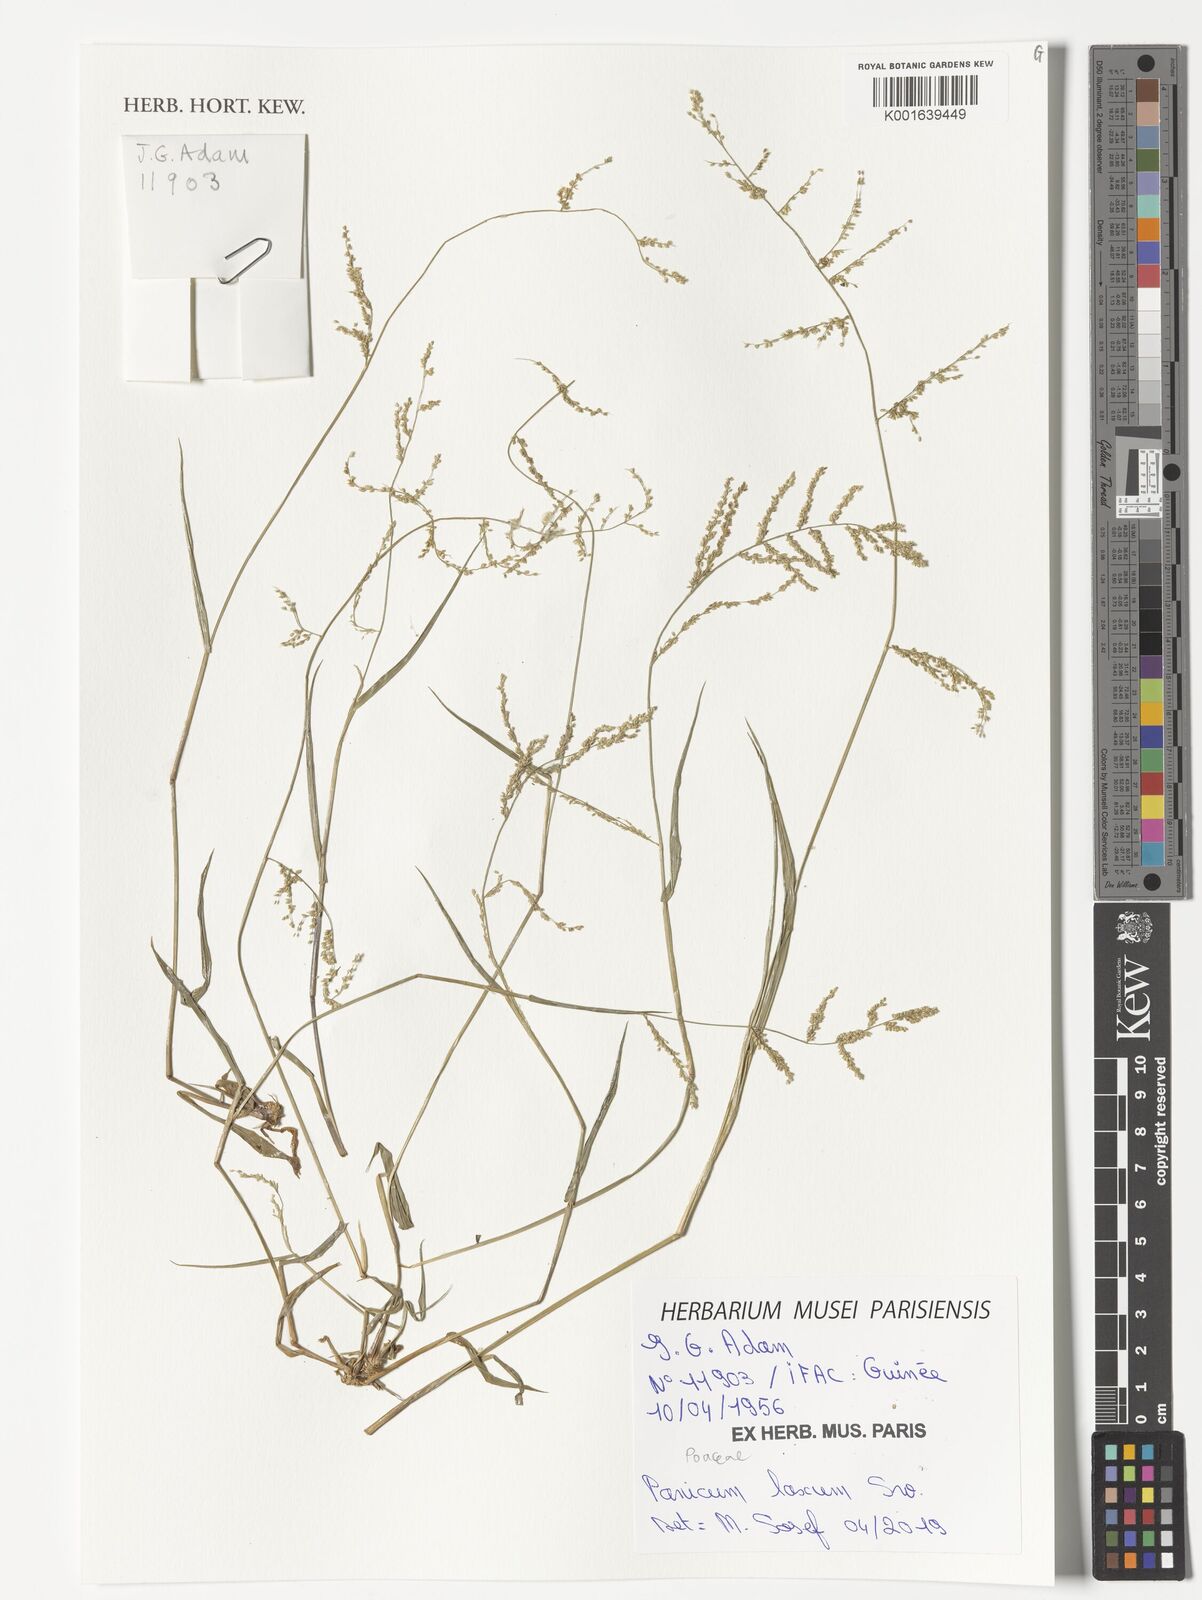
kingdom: Plantae
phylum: Tracheophyta
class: Liliopsida
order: Poales
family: Poaceae
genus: Panicum
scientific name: Panicum
